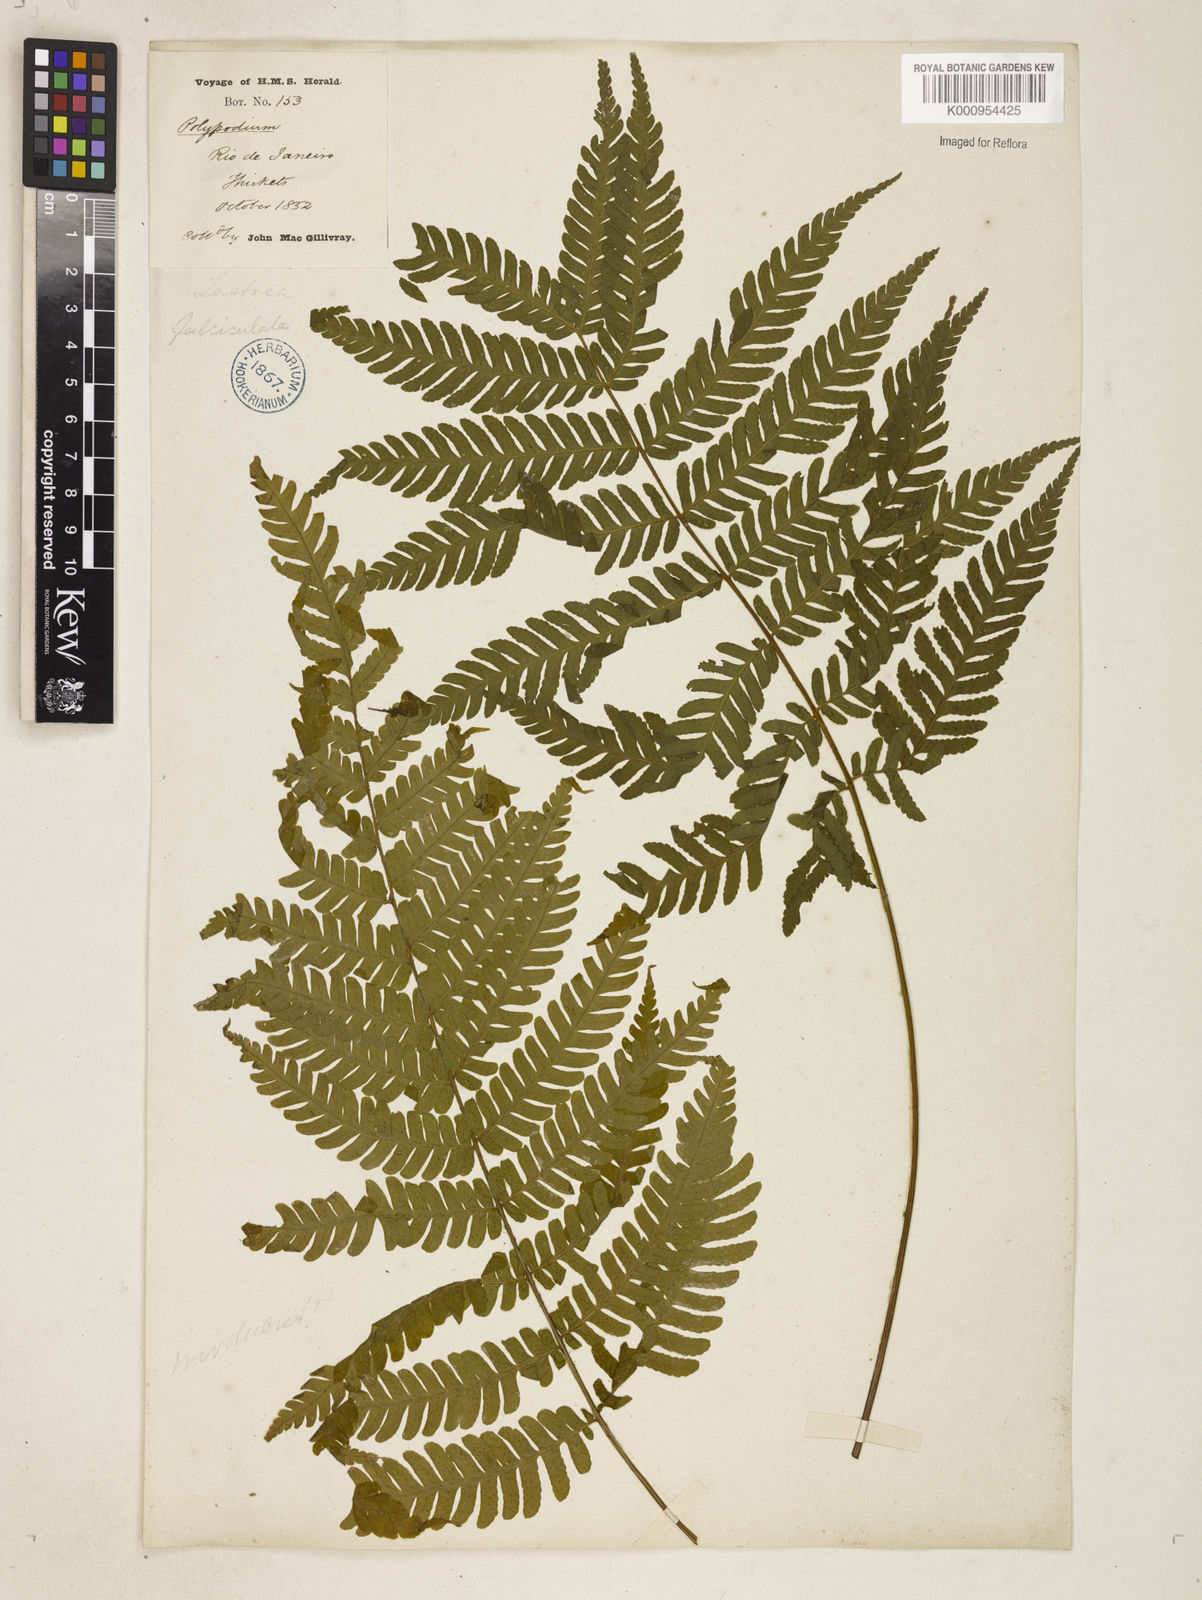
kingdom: Plantae
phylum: Tracheophyta
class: Polypodiopsida
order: Polypodiales
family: Dryopteridaceae
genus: Ctenitis
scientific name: Ctenitis falciculata
